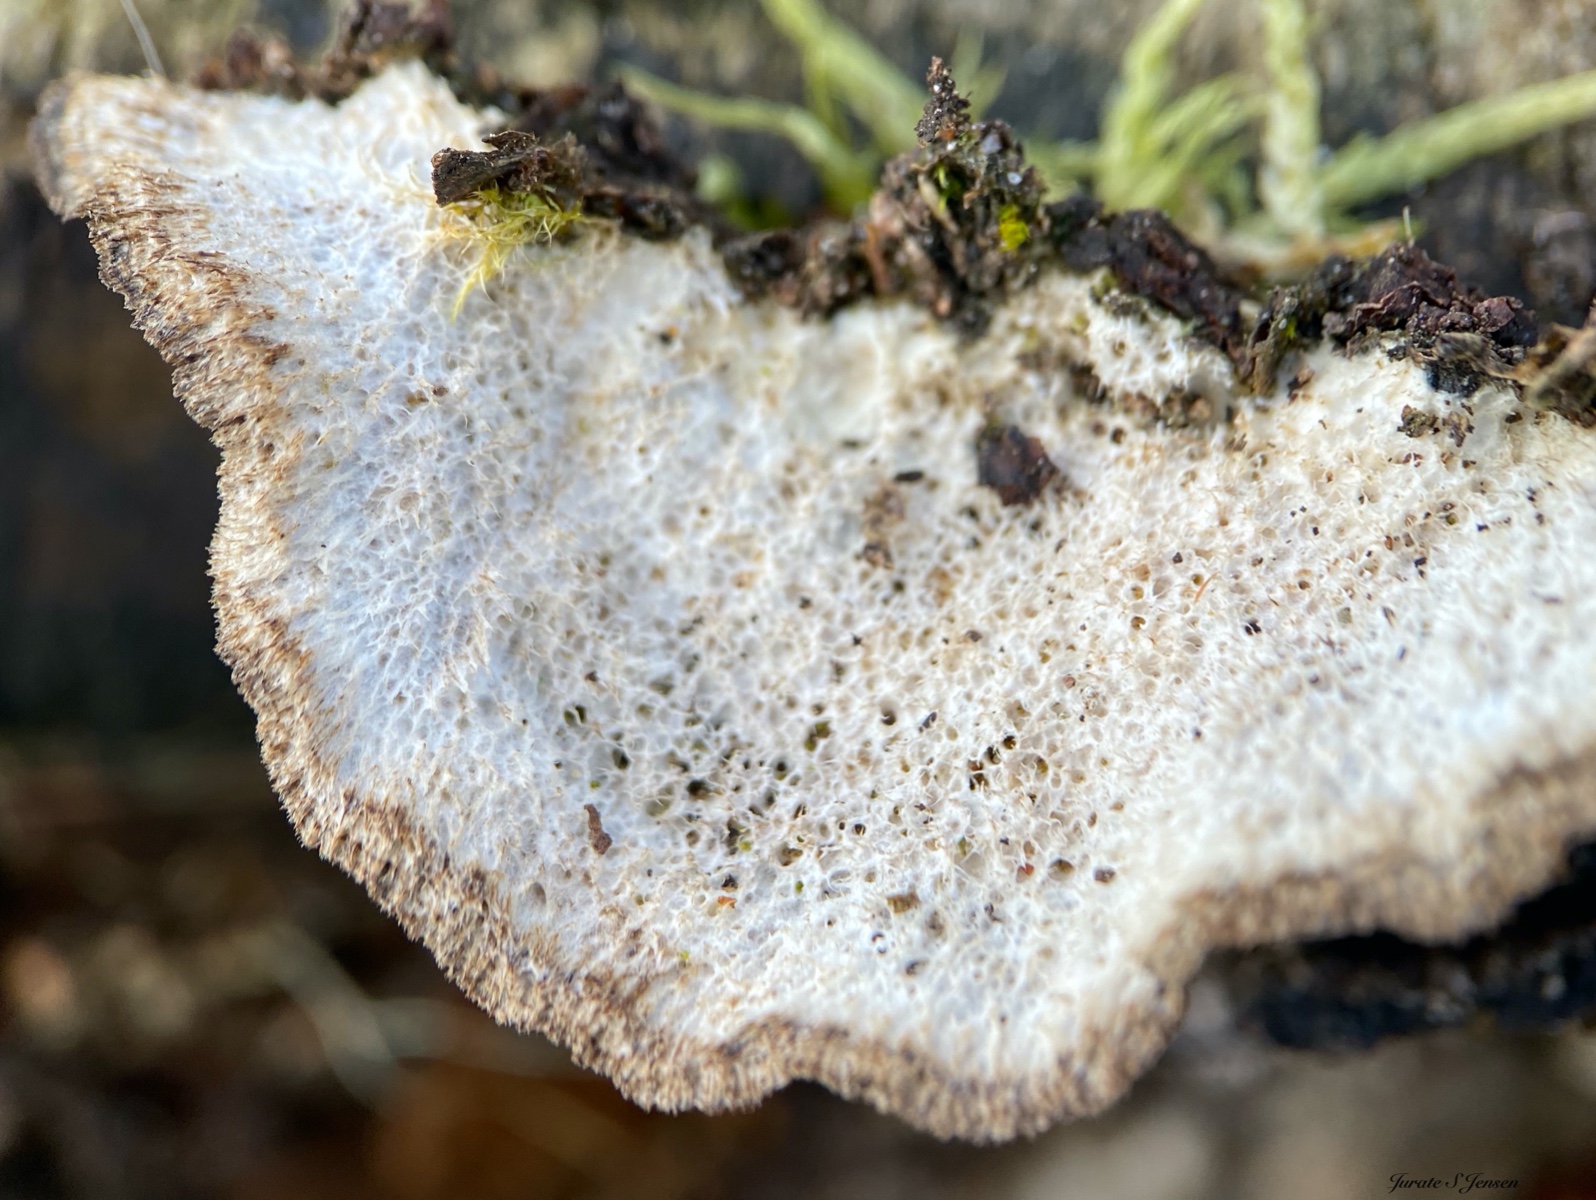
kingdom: Fungi
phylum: Basidiomycota
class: Agaricomycetes
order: Polyporales
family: Polyporaceae
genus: Trametes
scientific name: Trametes hirsuta
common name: håret læderporesvamp
